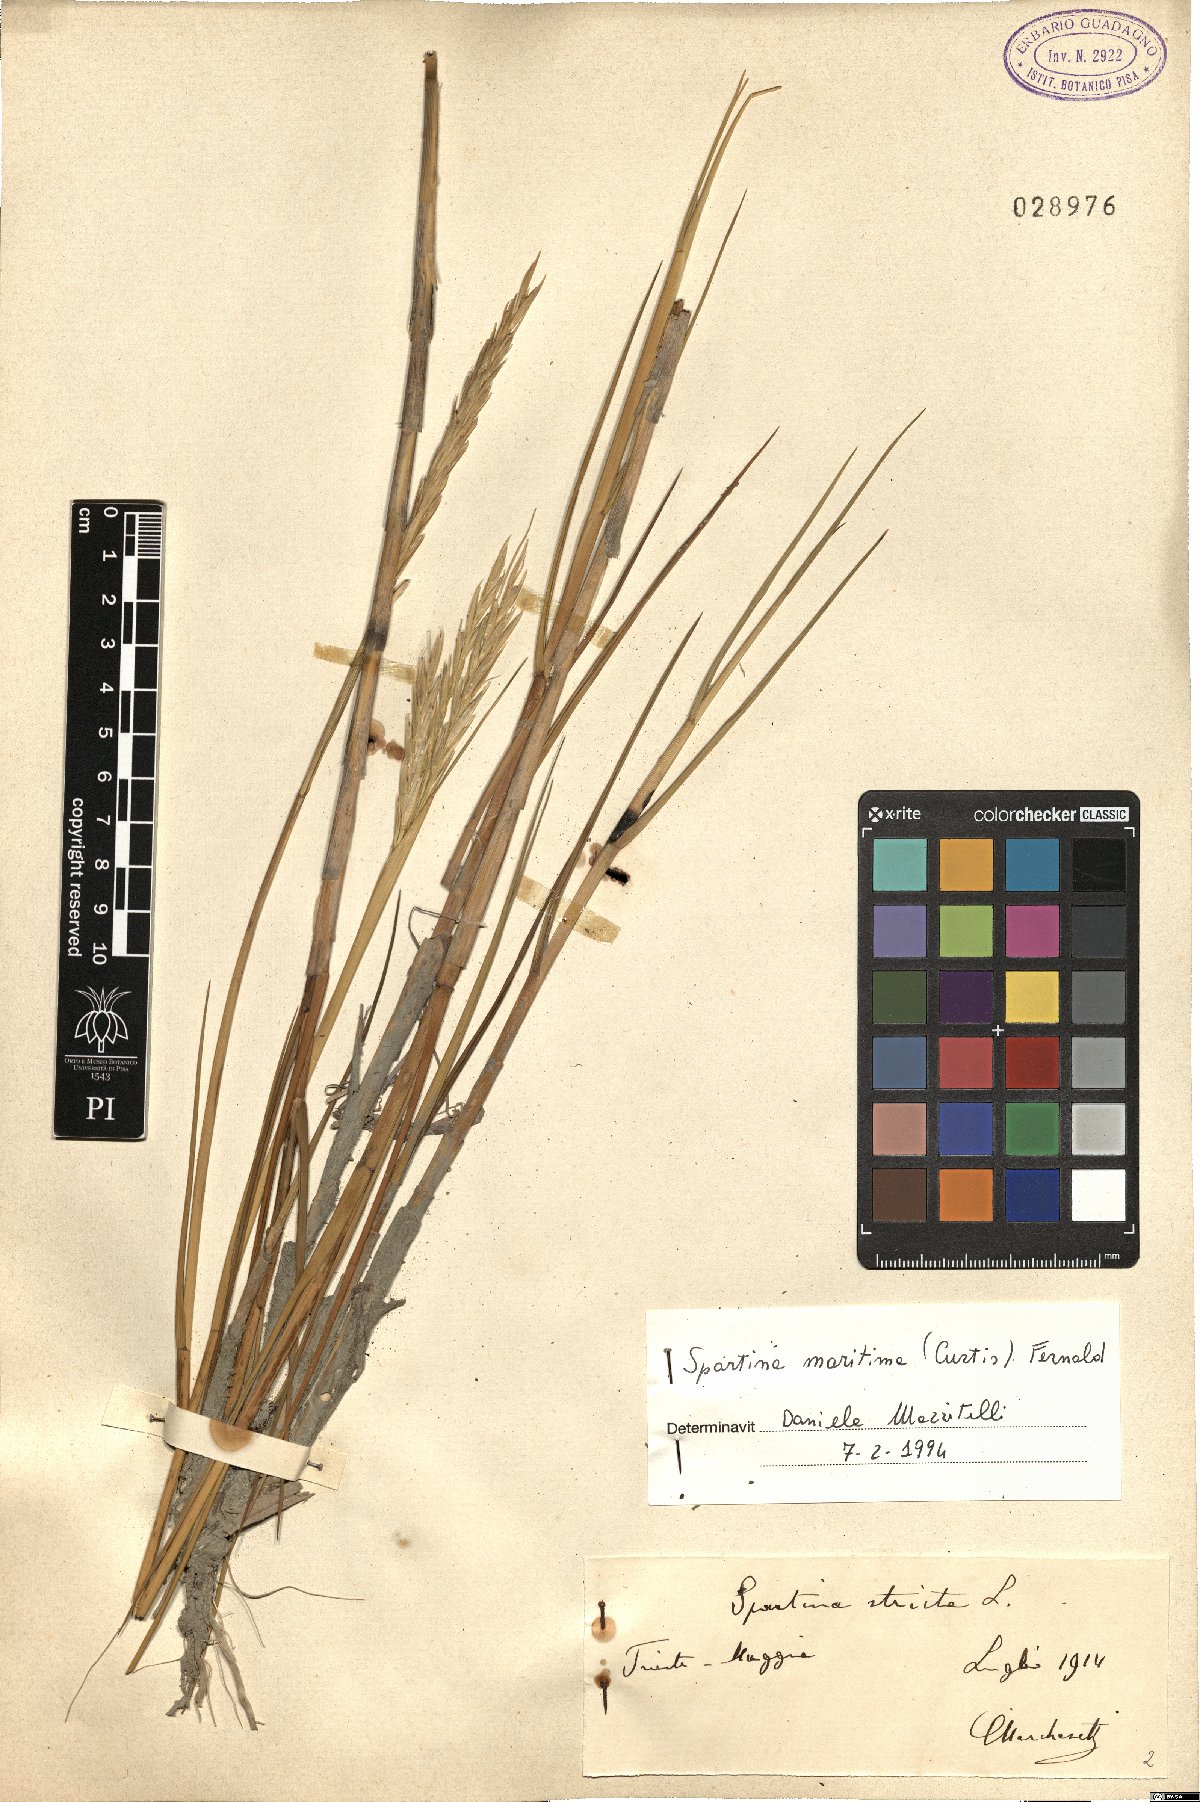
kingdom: Plantae
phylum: Tracheophyta
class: Liliopsida
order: Poales
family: Poaceae
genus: Sporobolus
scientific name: Sporobolus maritimus
